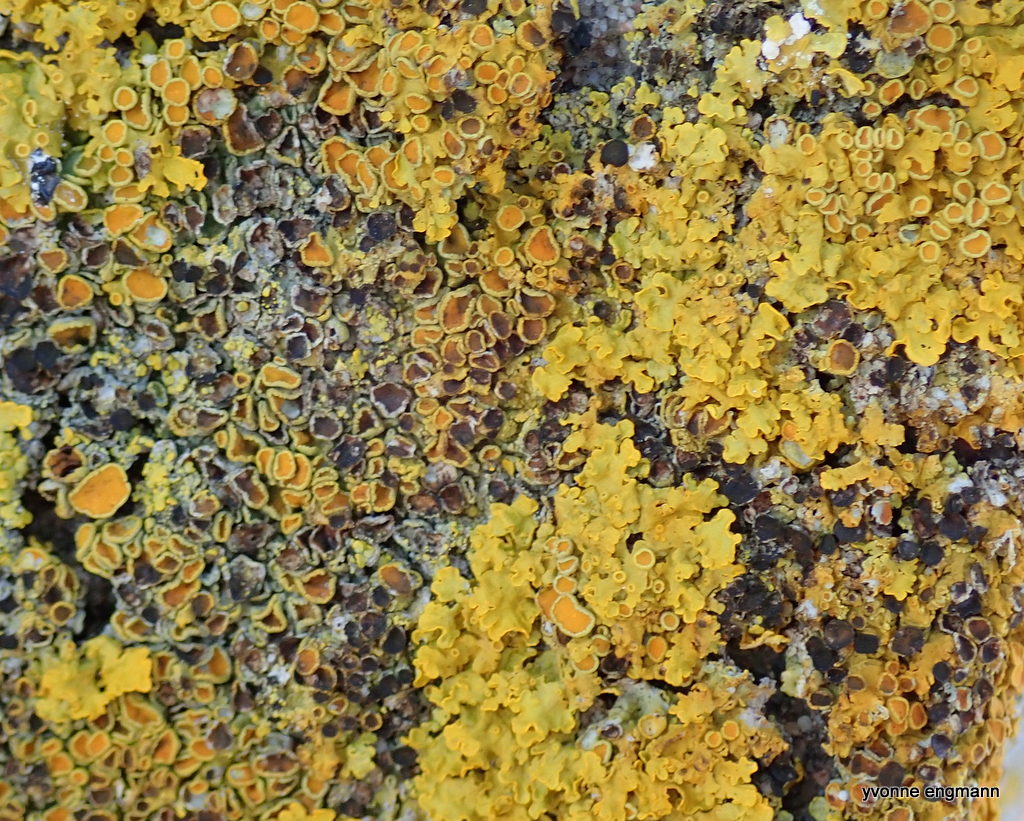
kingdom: Fungi
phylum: Ascomycota
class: Dothideomycetes
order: Mycosphaerellales
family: Teratosphaeriaceae
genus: Xanthoriicola
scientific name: Xanthoriicola physciae
